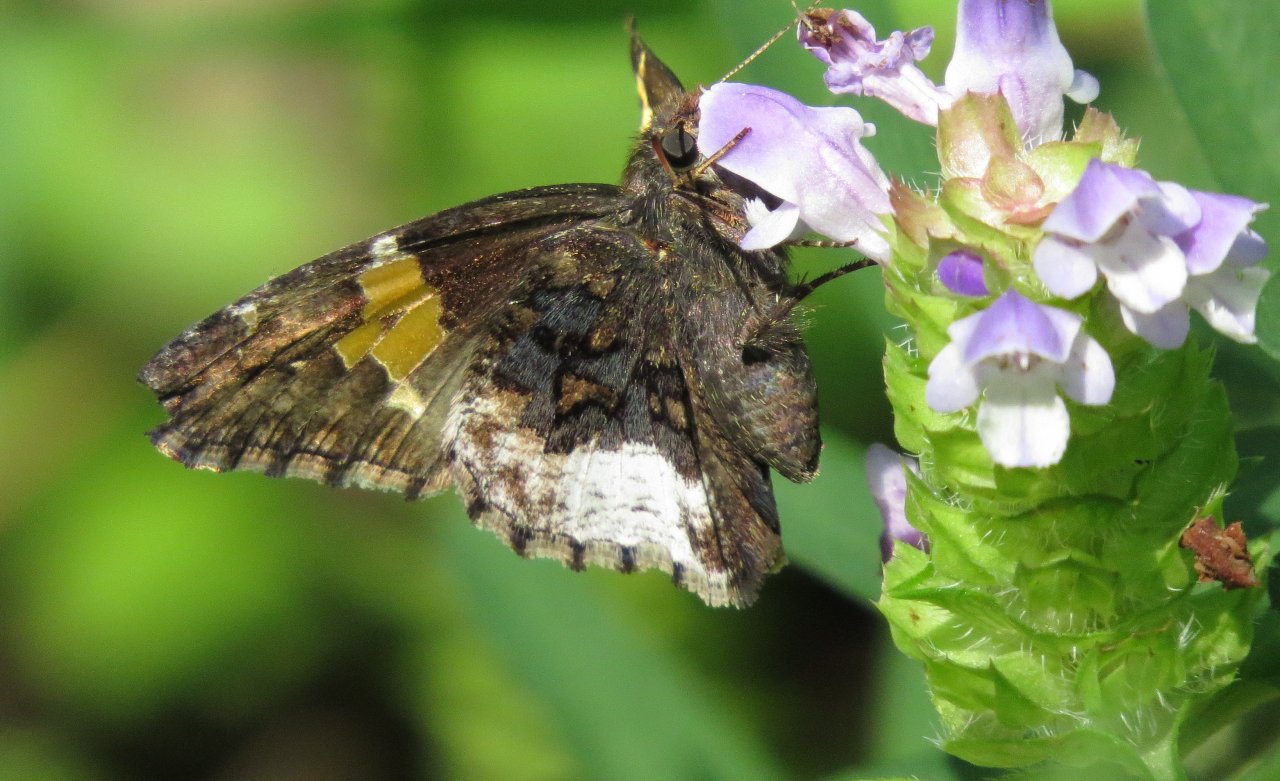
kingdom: Animalia
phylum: Arthropoda
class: Insecta
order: Lepidoptera
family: Hesperiidae
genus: Achalarus
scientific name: Achalarus lyciades
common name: Hoary Edge
